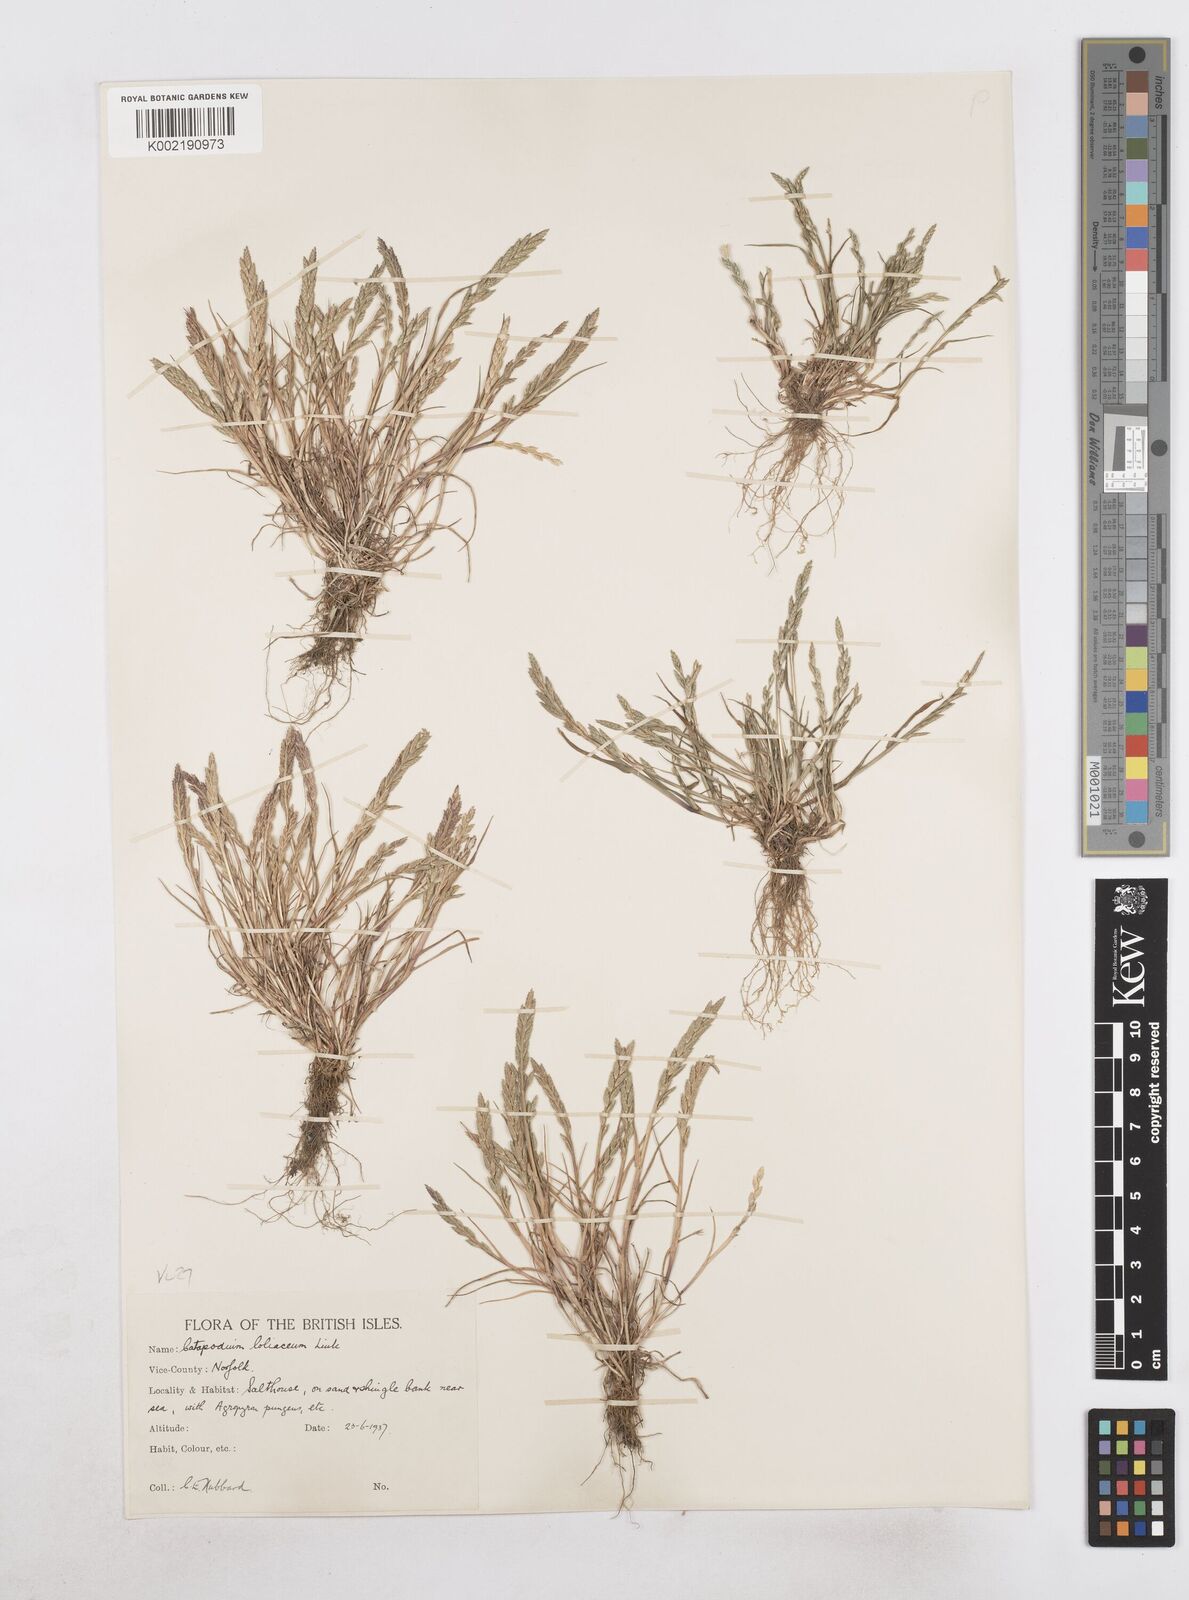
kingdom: Plantae
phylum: Tracheophyta
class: Liliopsida
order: Poales
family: Poaceae
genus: Catapodium
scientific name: Catapodium marinum
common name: Sea fern-grass
